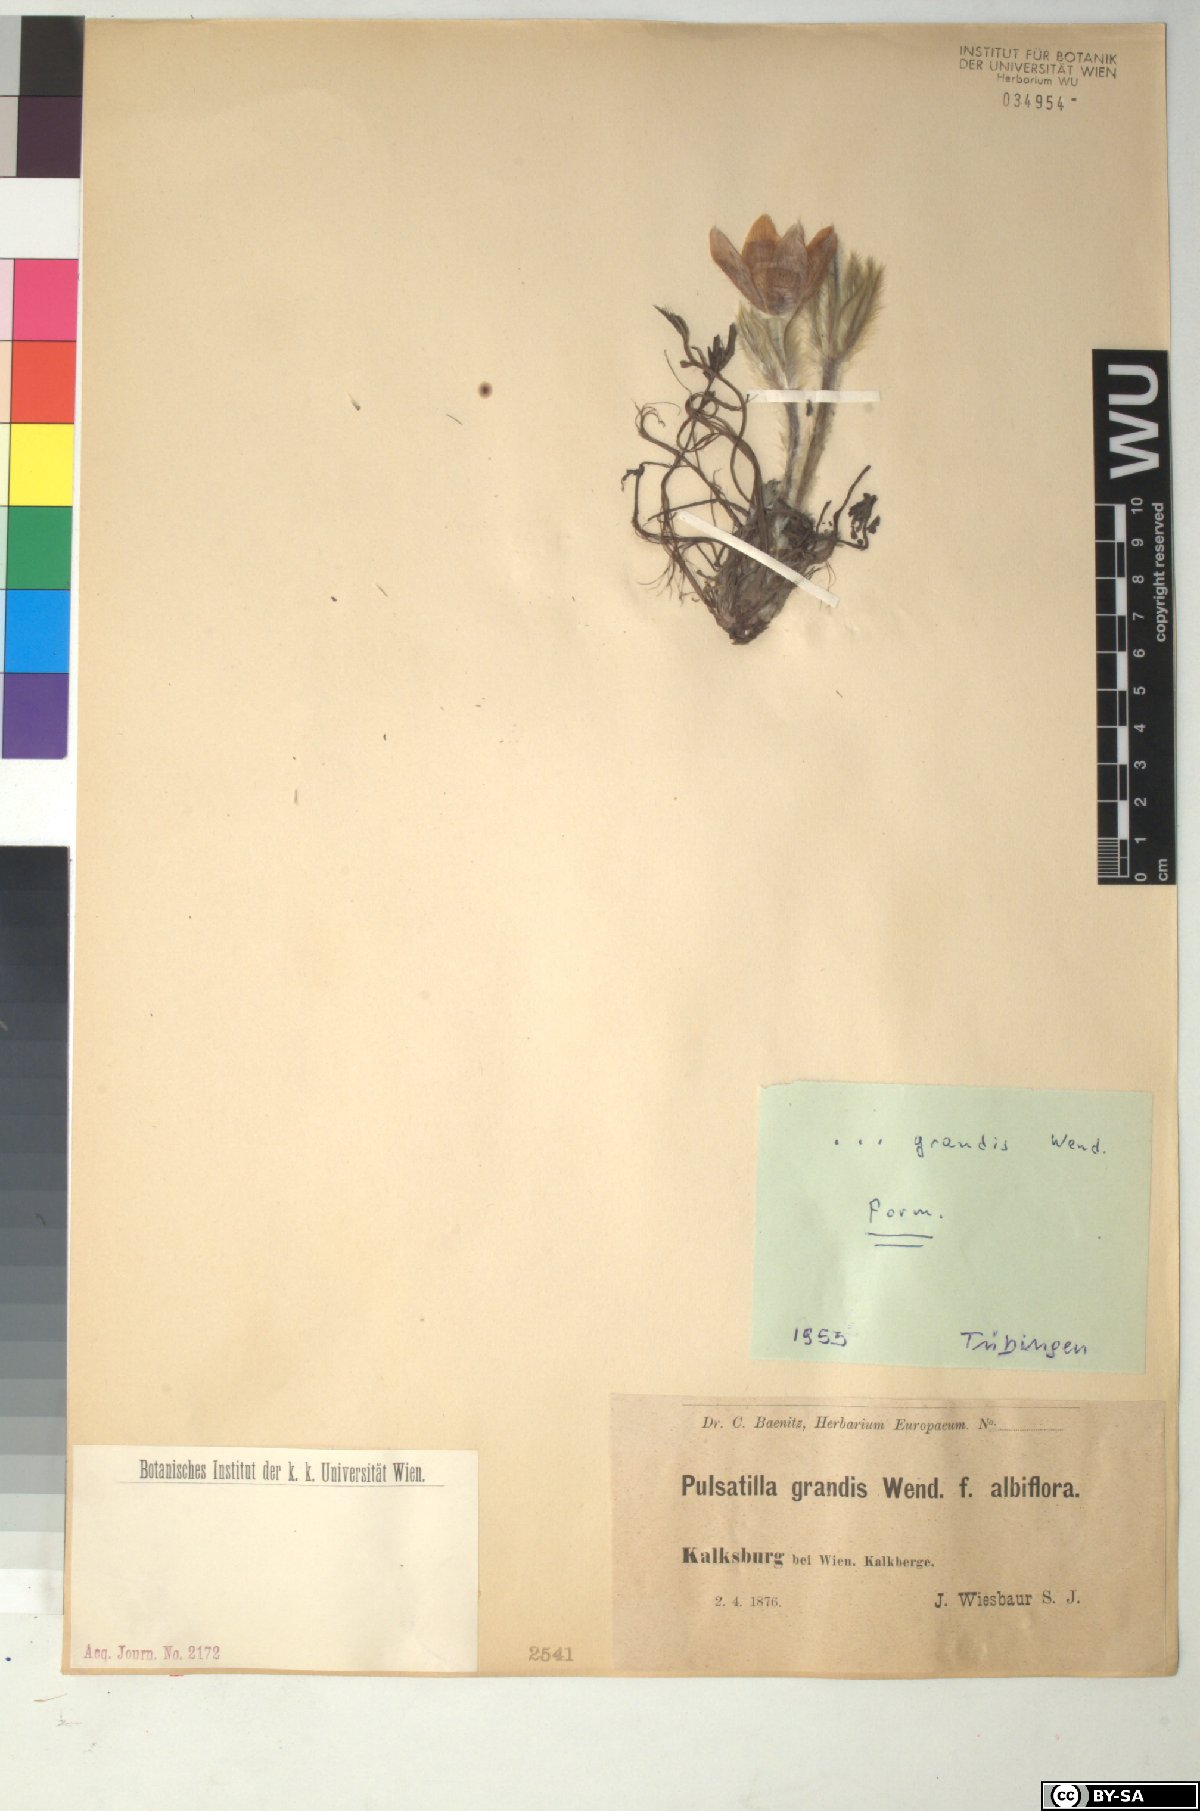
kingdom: Plantae
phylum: Tracheophyta
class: Magnoliopsida
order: Ranunculales
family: Ranunculaceae
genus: Pulsatilla
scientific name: Pulsatilla grandis
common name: Greater pasque flower
